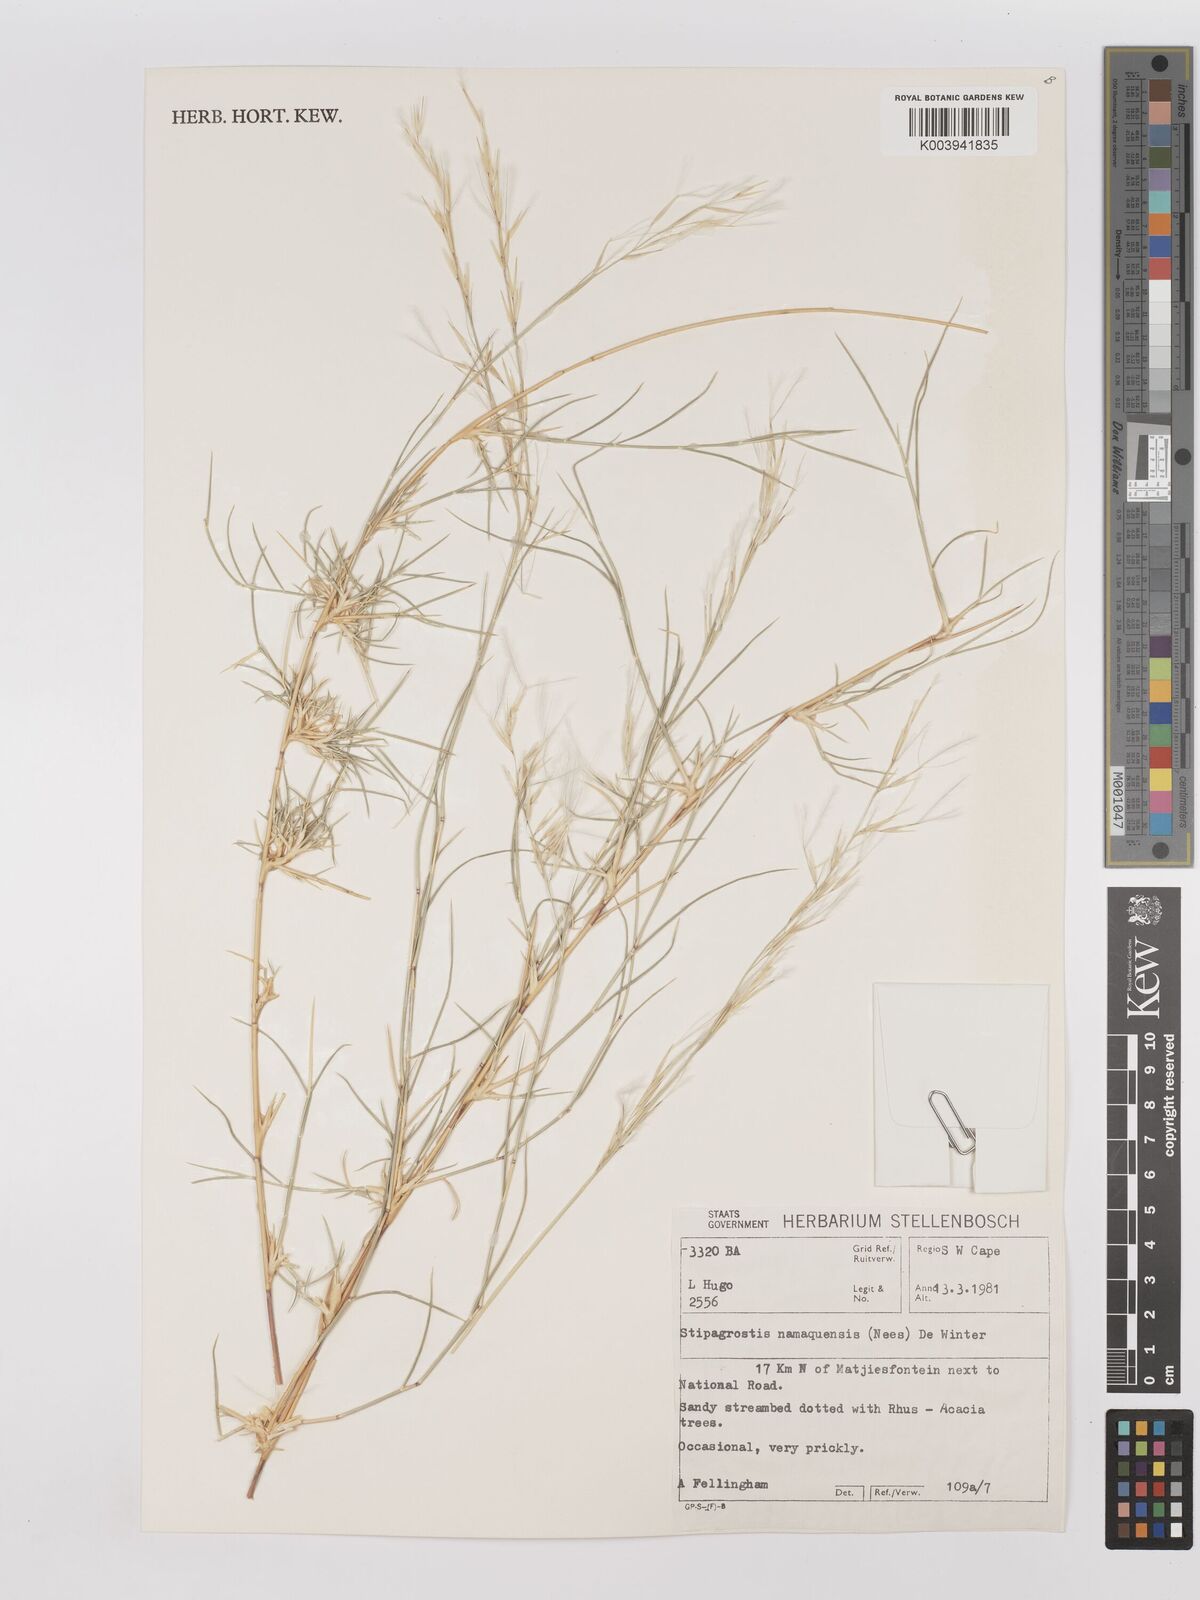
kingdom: Plantae
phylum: Tracheophyta
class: Liliopsida
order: Poales
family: Poaceae
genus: Stipagrostis
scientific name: Stipagrostis namaquensis
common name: River bushman grass
